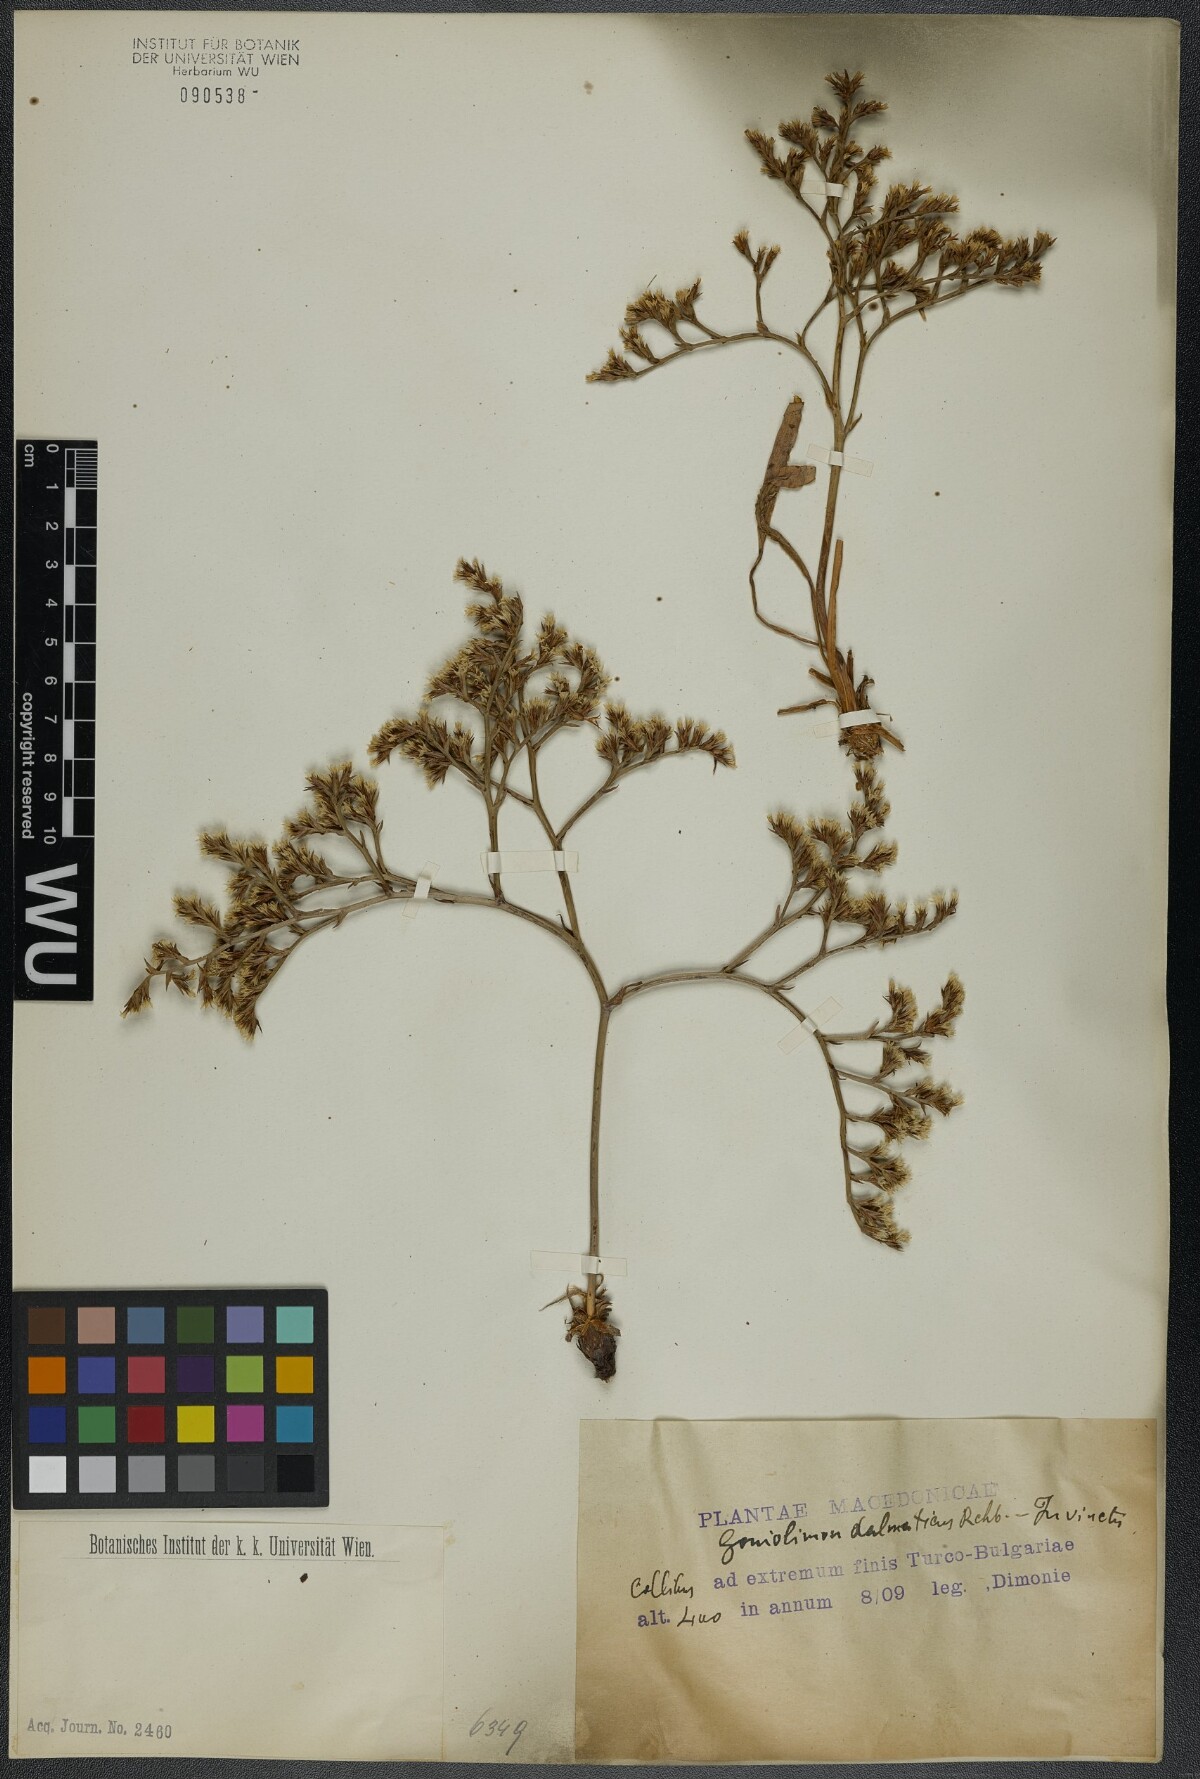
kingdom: Plantae
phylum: Tracheophyta
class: Magnoliopsida
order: Caryophyllales
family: Plumbaginaceae
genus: Goniolimon
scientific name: Goniolimon dalmaticum
